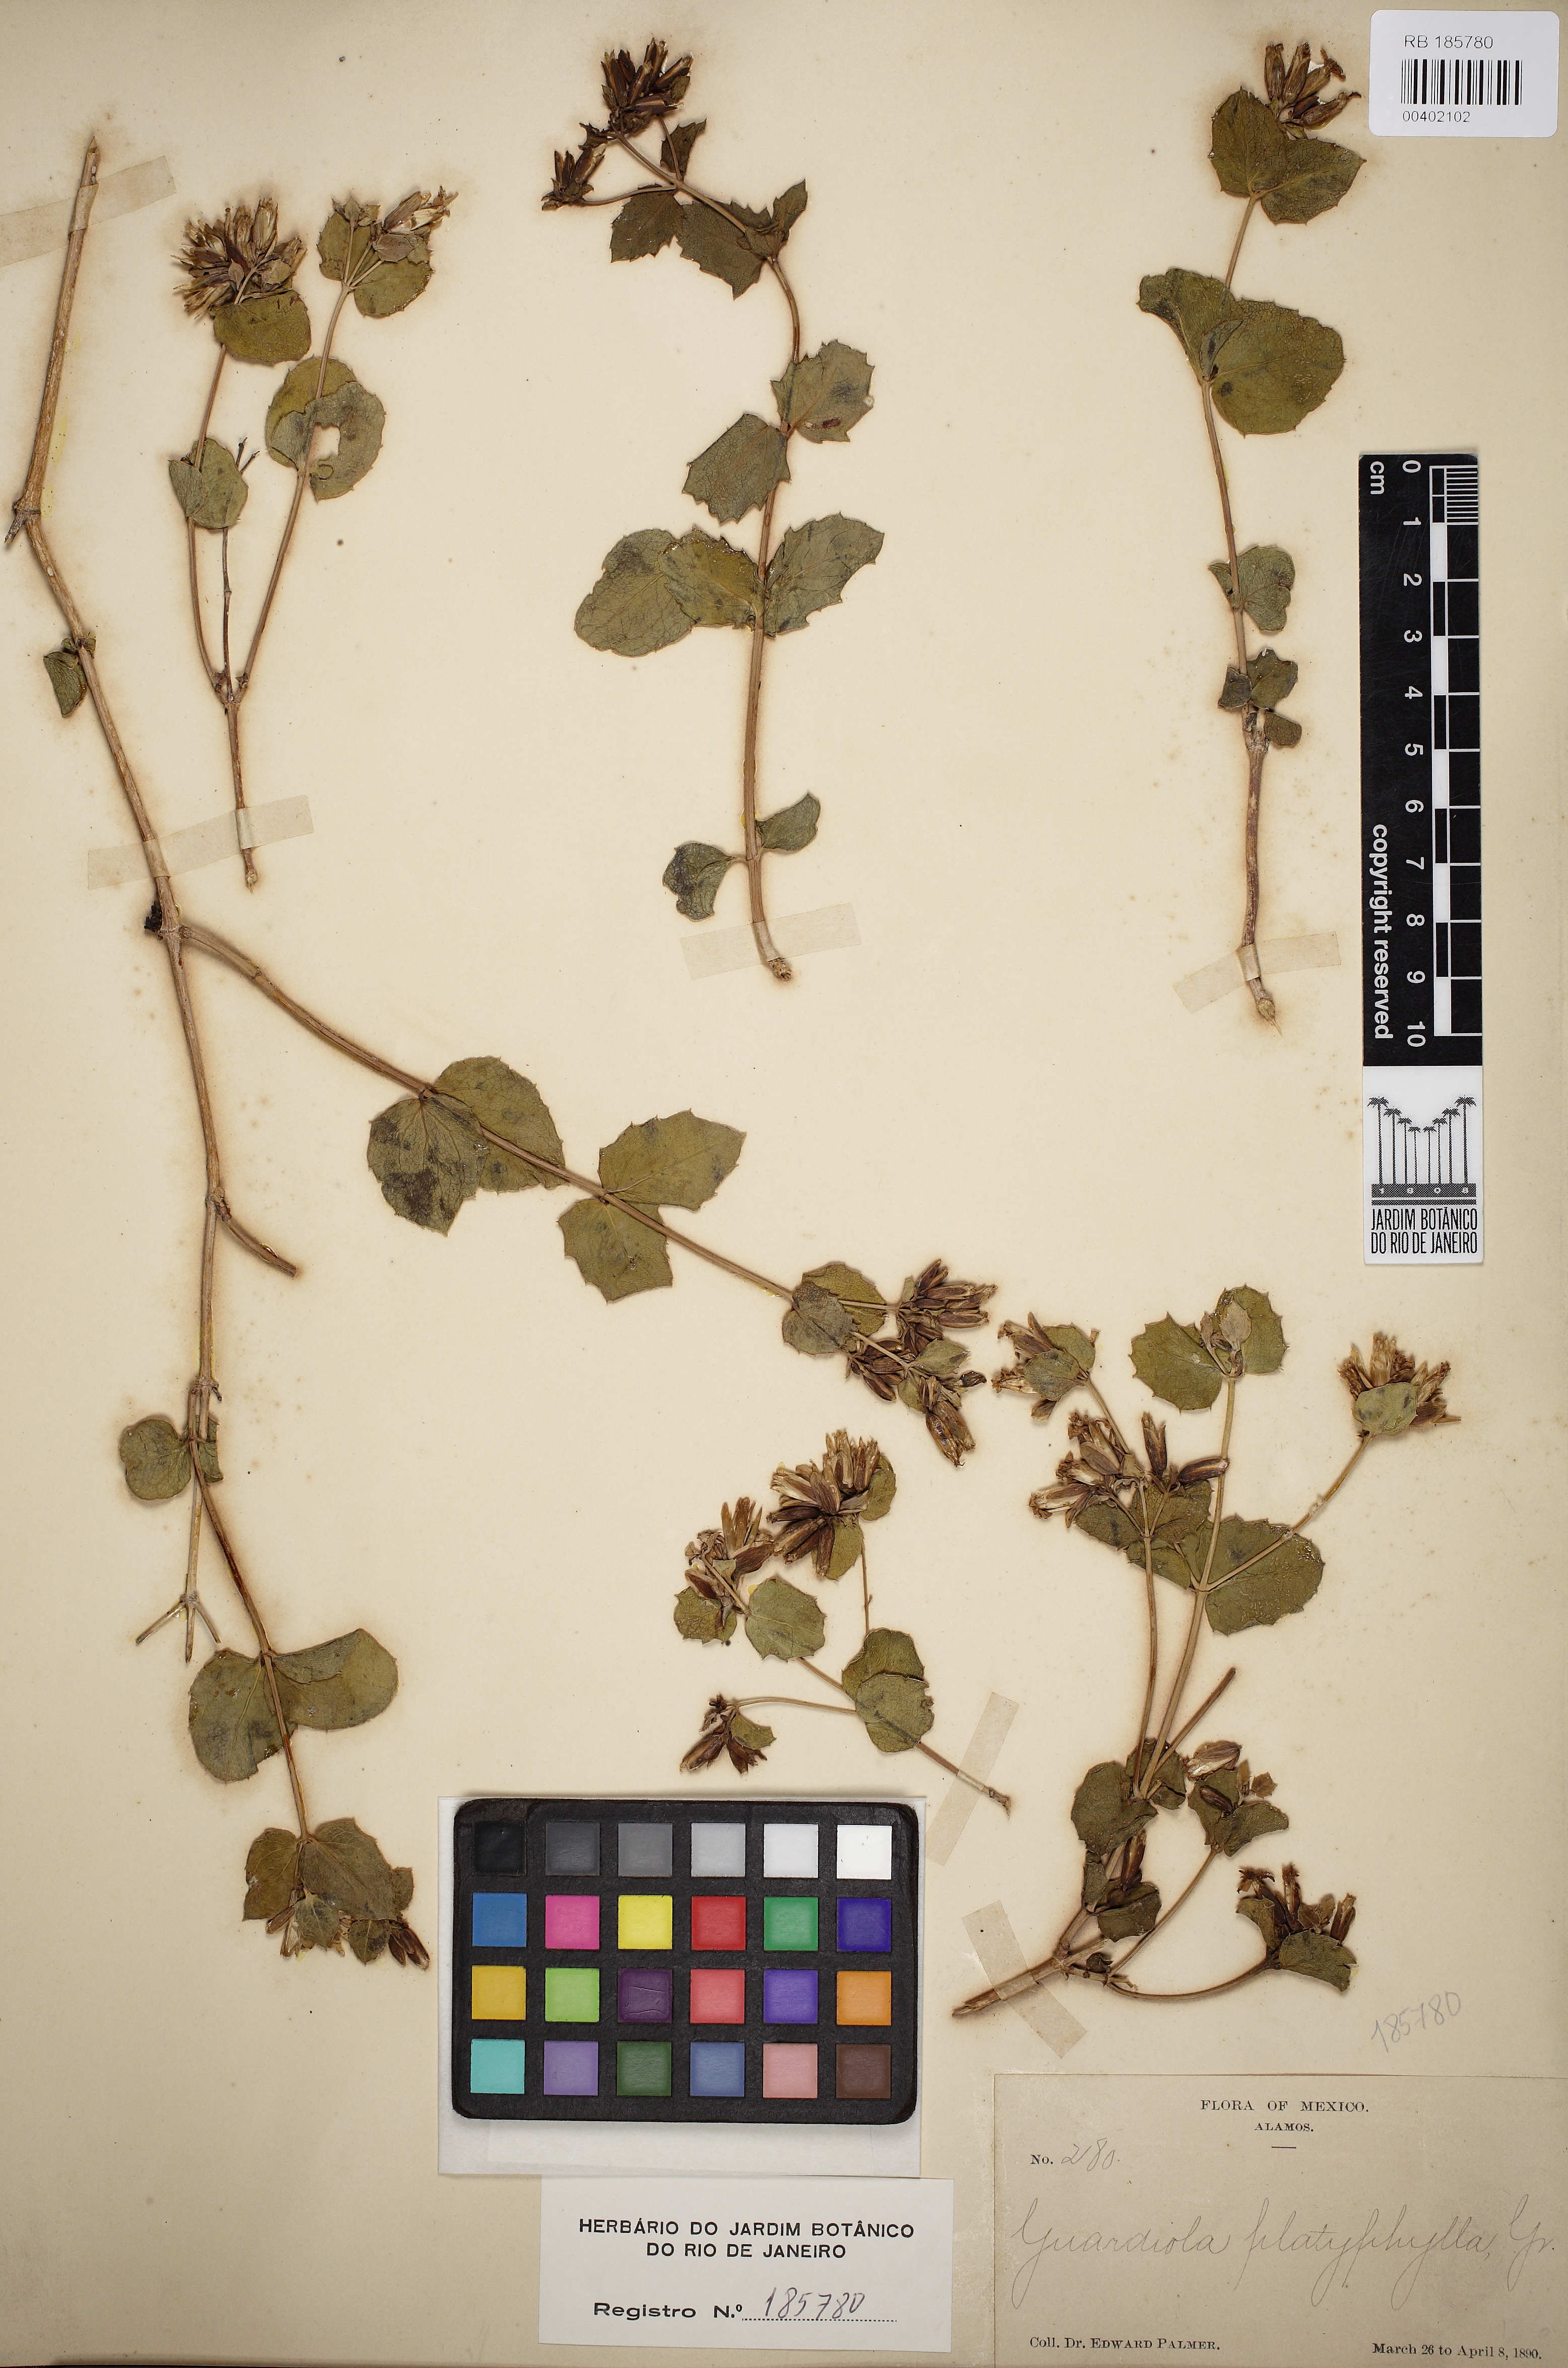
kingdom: Plantae
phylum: Tracheophyta
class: Magnoliopsida
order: Asterales
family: Asteraceae
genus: Guardiola
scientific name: Guardiola platyphylla
